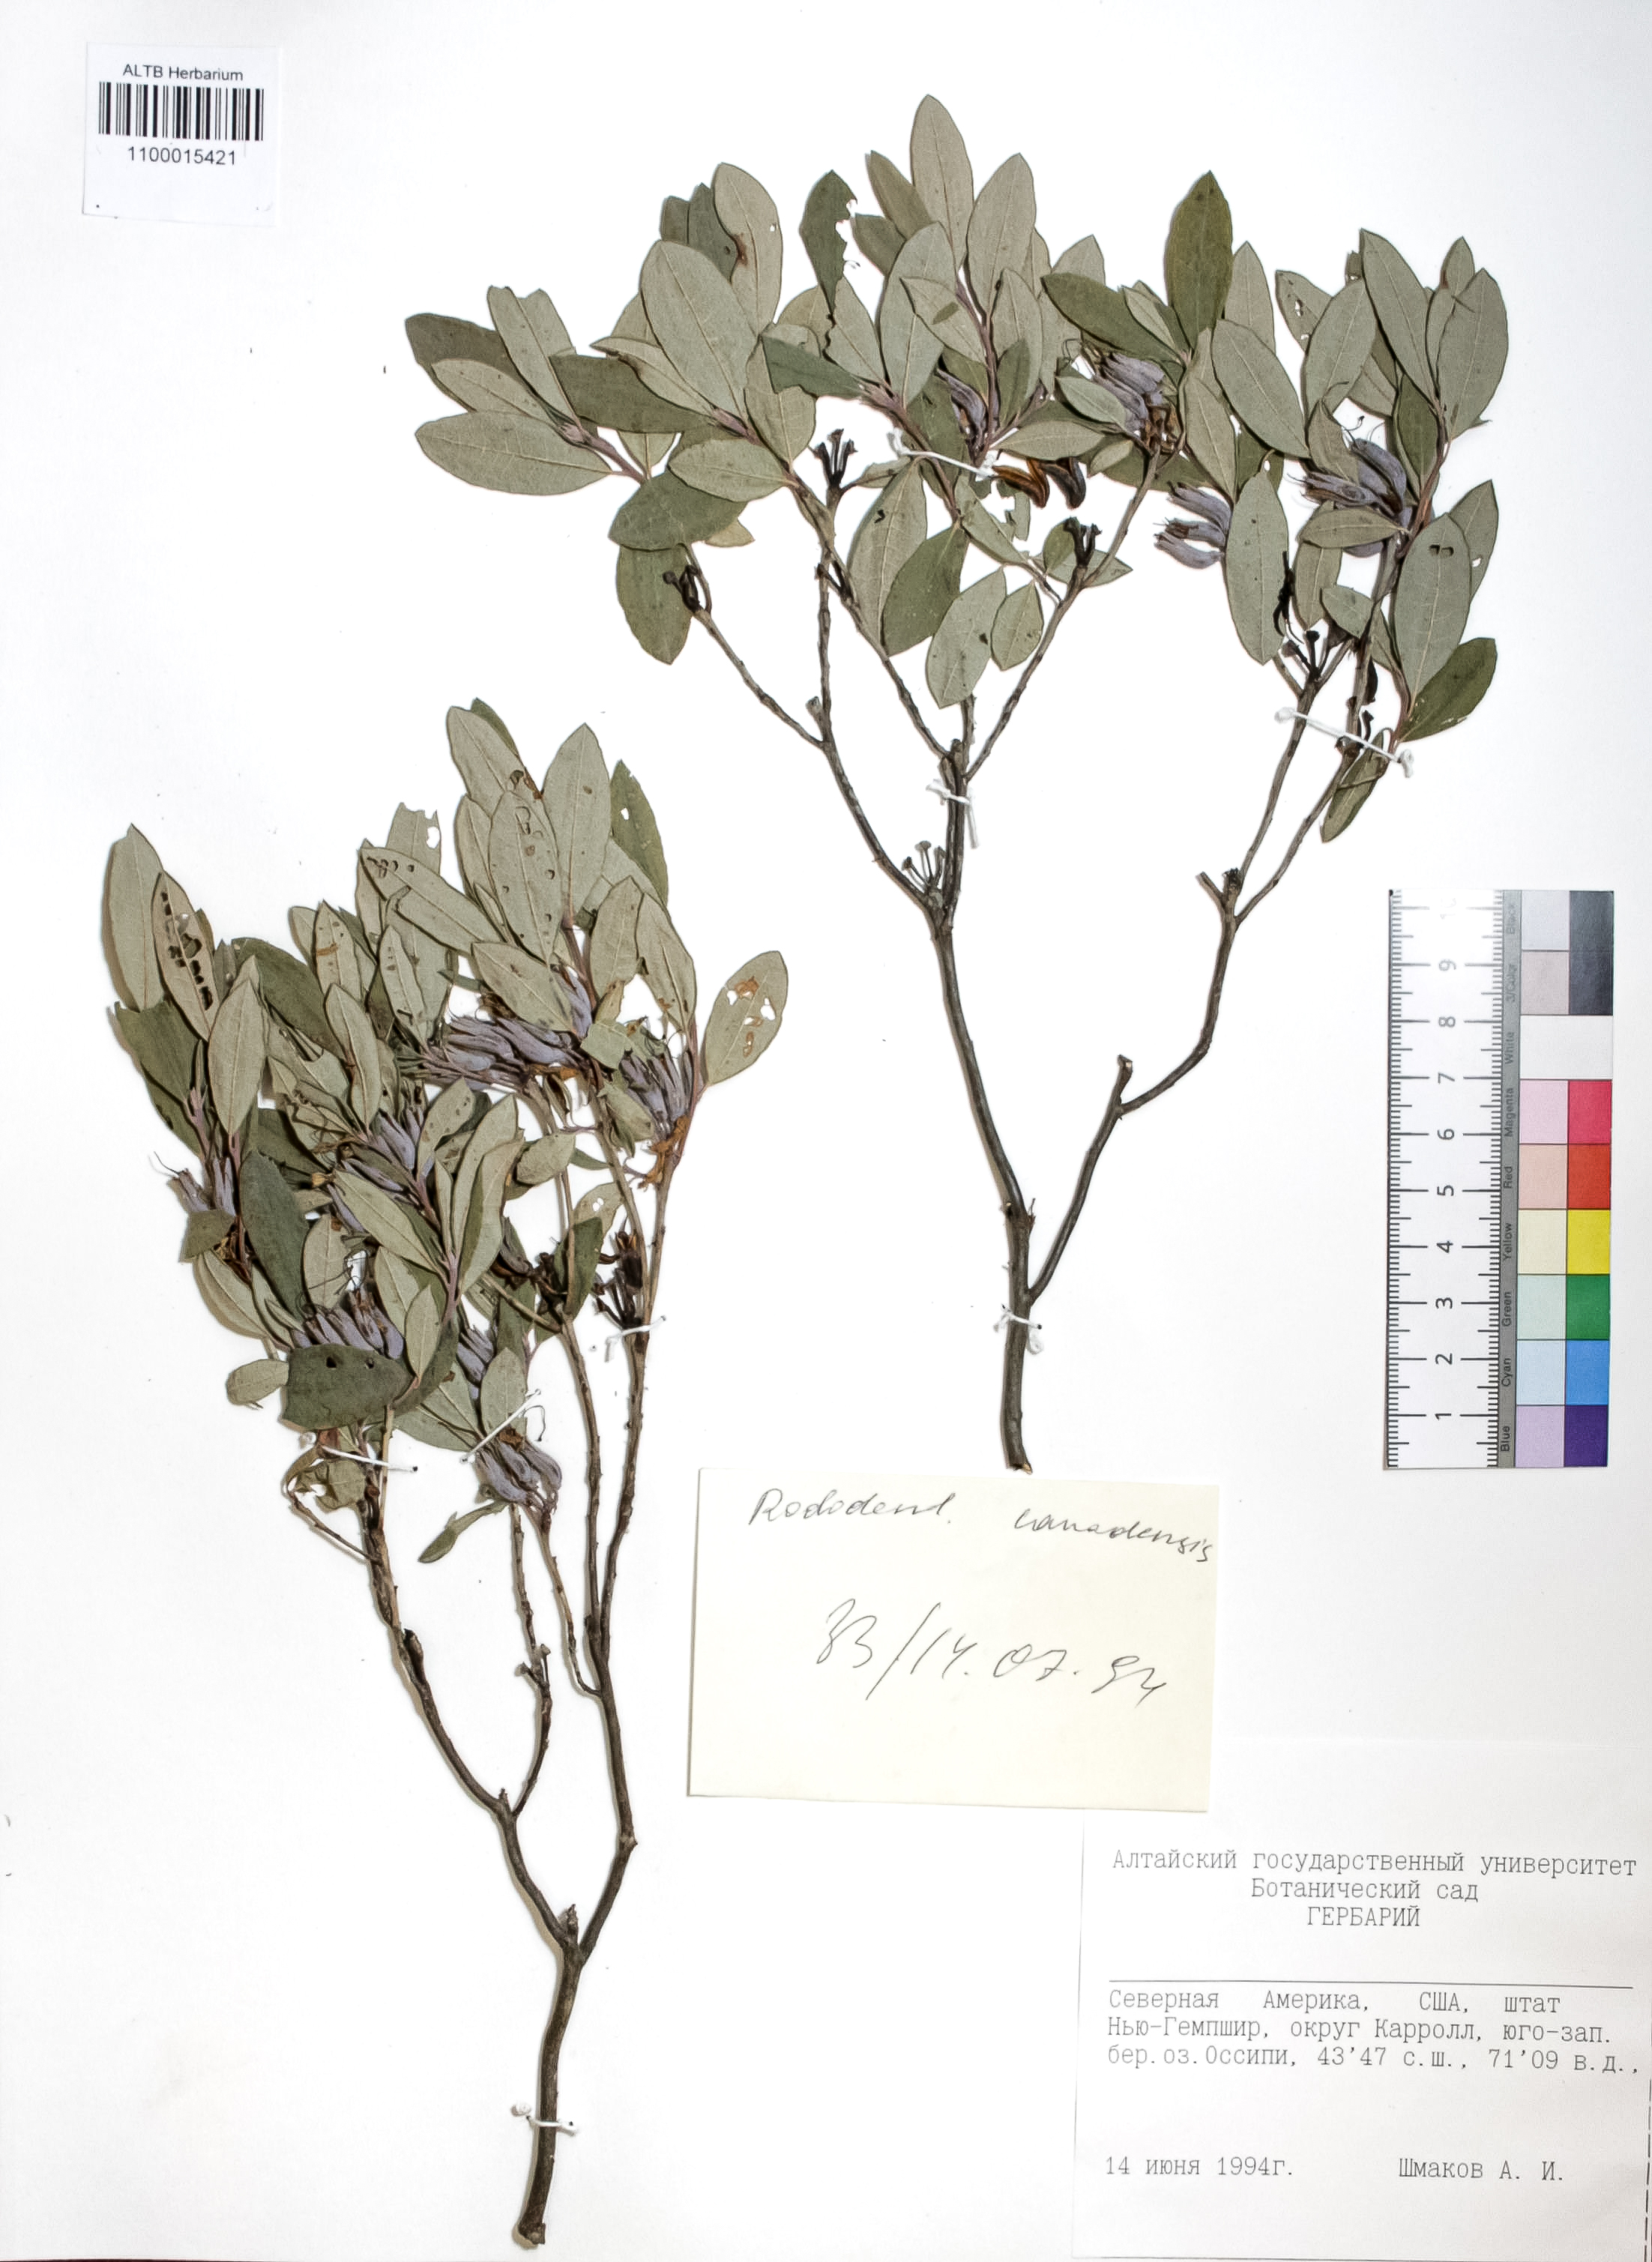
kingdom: Plantae
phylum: Tracheophyta
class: Magnoliopsida
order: Ericales
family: Ericaceae
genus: Rhododendron
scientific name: Rhododendron canadense
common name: Rhodora
